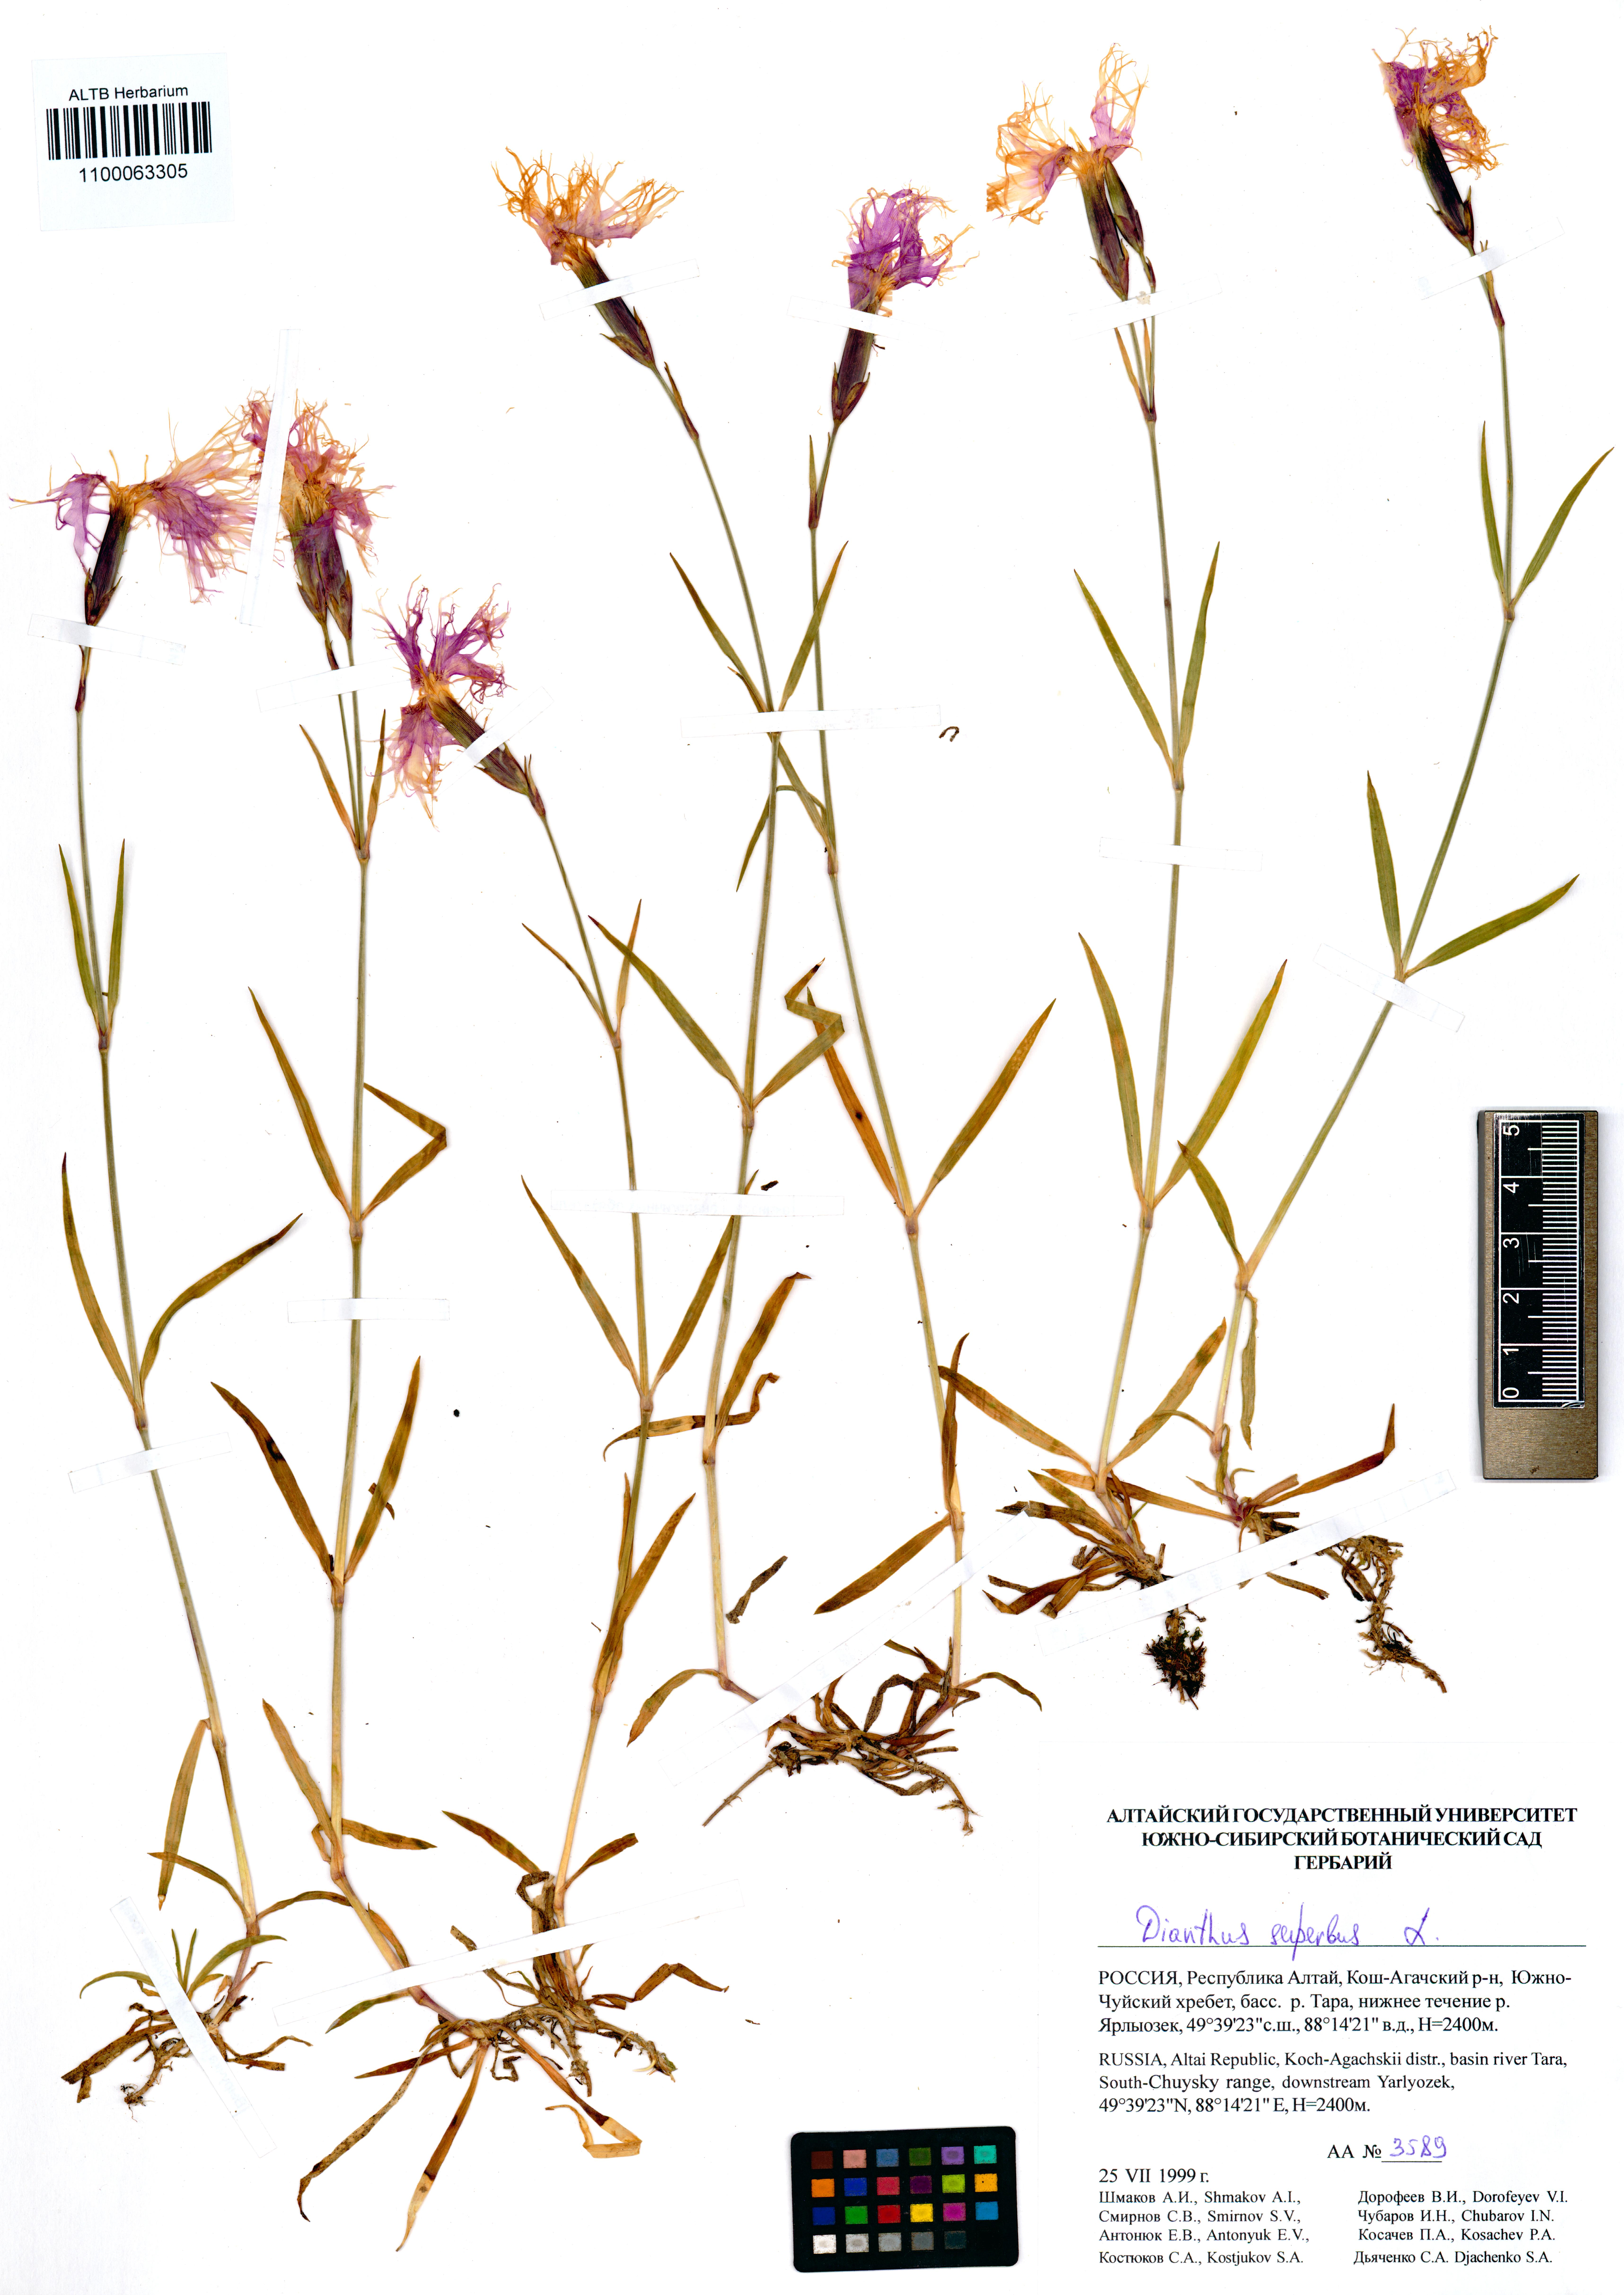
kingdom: Plantae
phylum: Tracheophyta
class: Magnoliopsida
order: Caryophyllales
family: Caryophyllaceae
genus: Dianthus
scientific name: Dianthus superbus
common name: Fringed pink
